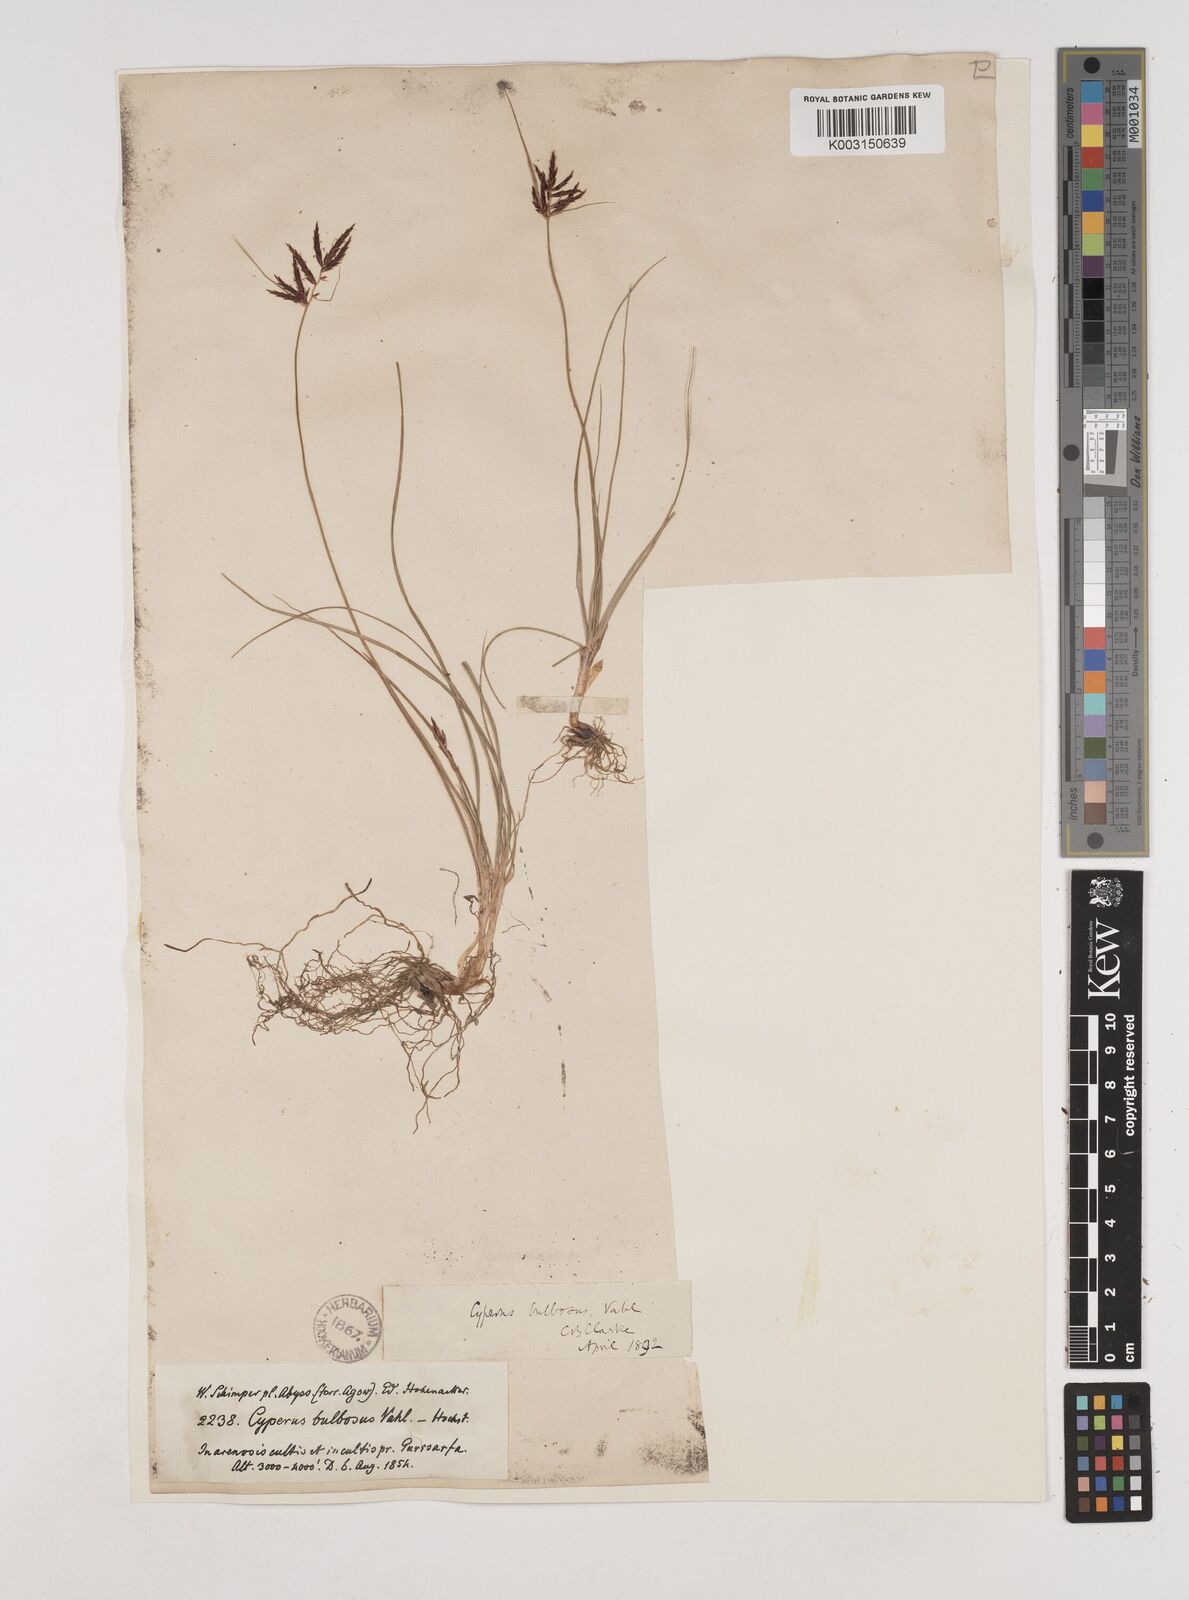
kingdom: Plantae
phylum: Tracheophyta
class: Liliopsida
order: Poales
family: Cyperaceae
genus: Cyperus
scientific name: Cyperus bulbosus
